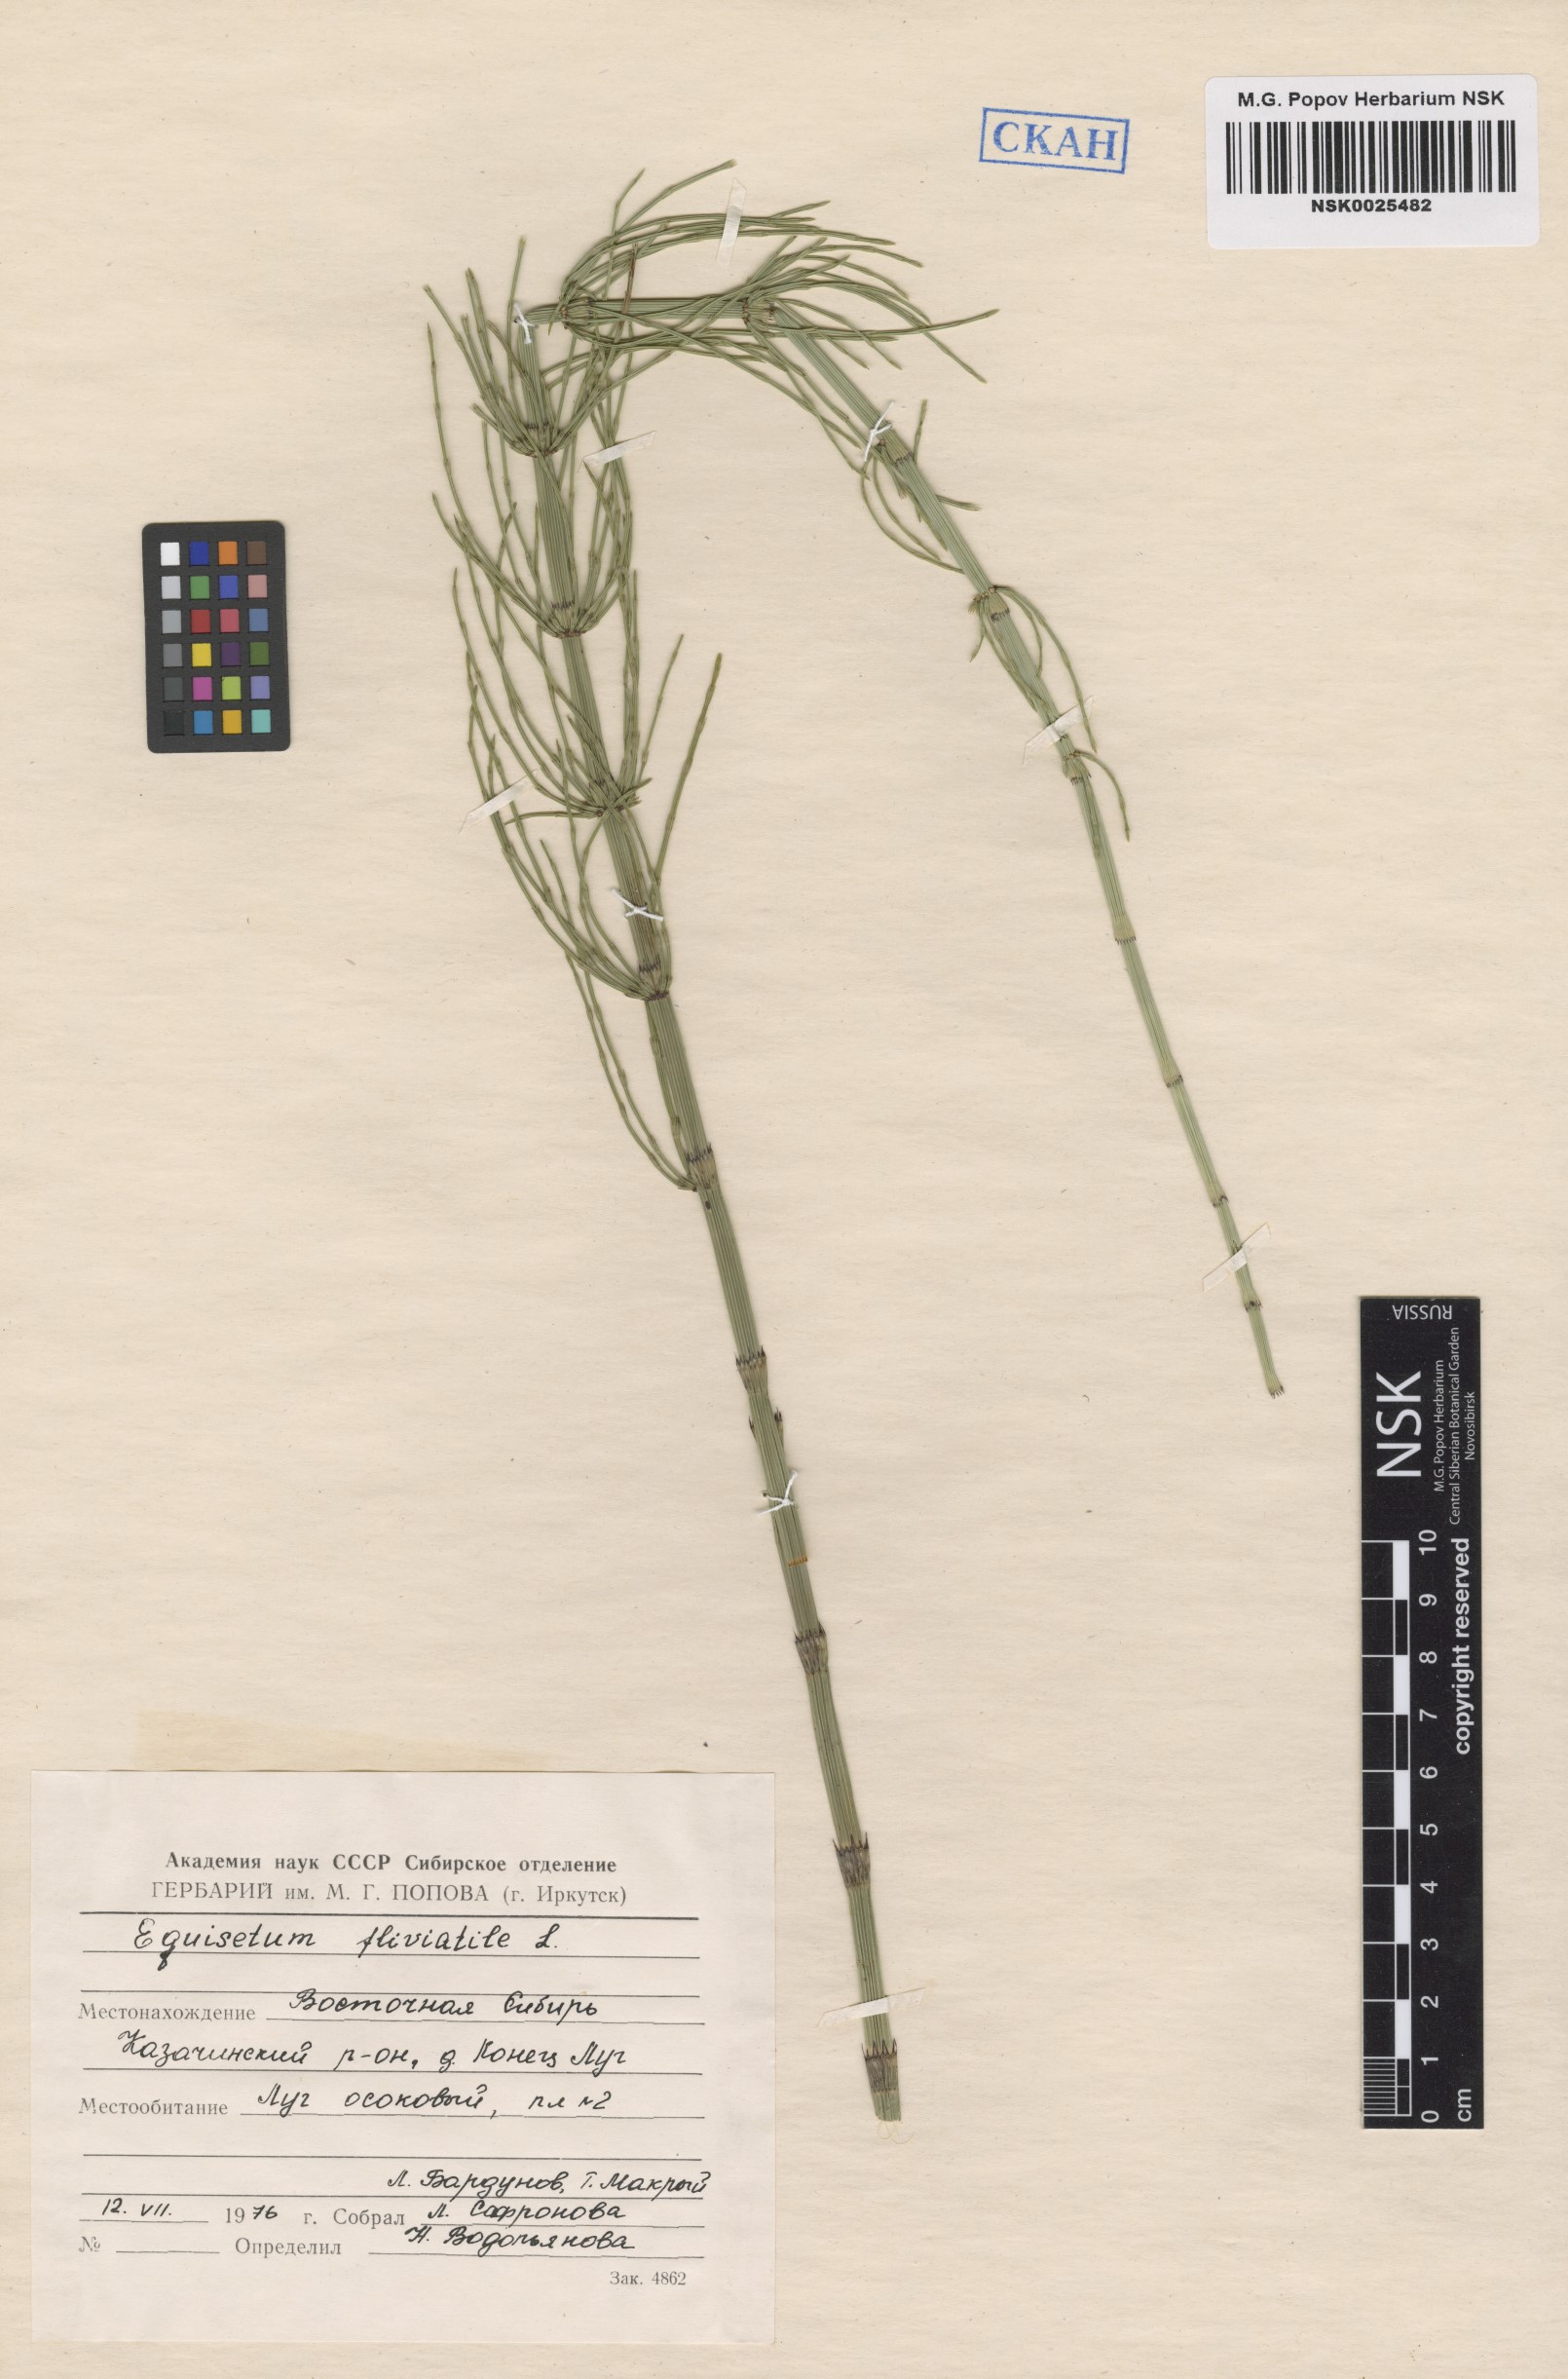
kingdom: Plantae
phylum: Tracheophyta
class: Polypodiopsida
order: Equisetales
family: Equisetaceae
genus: Equisetum
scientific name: Equisetum fluviatile
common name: Water horsetail
